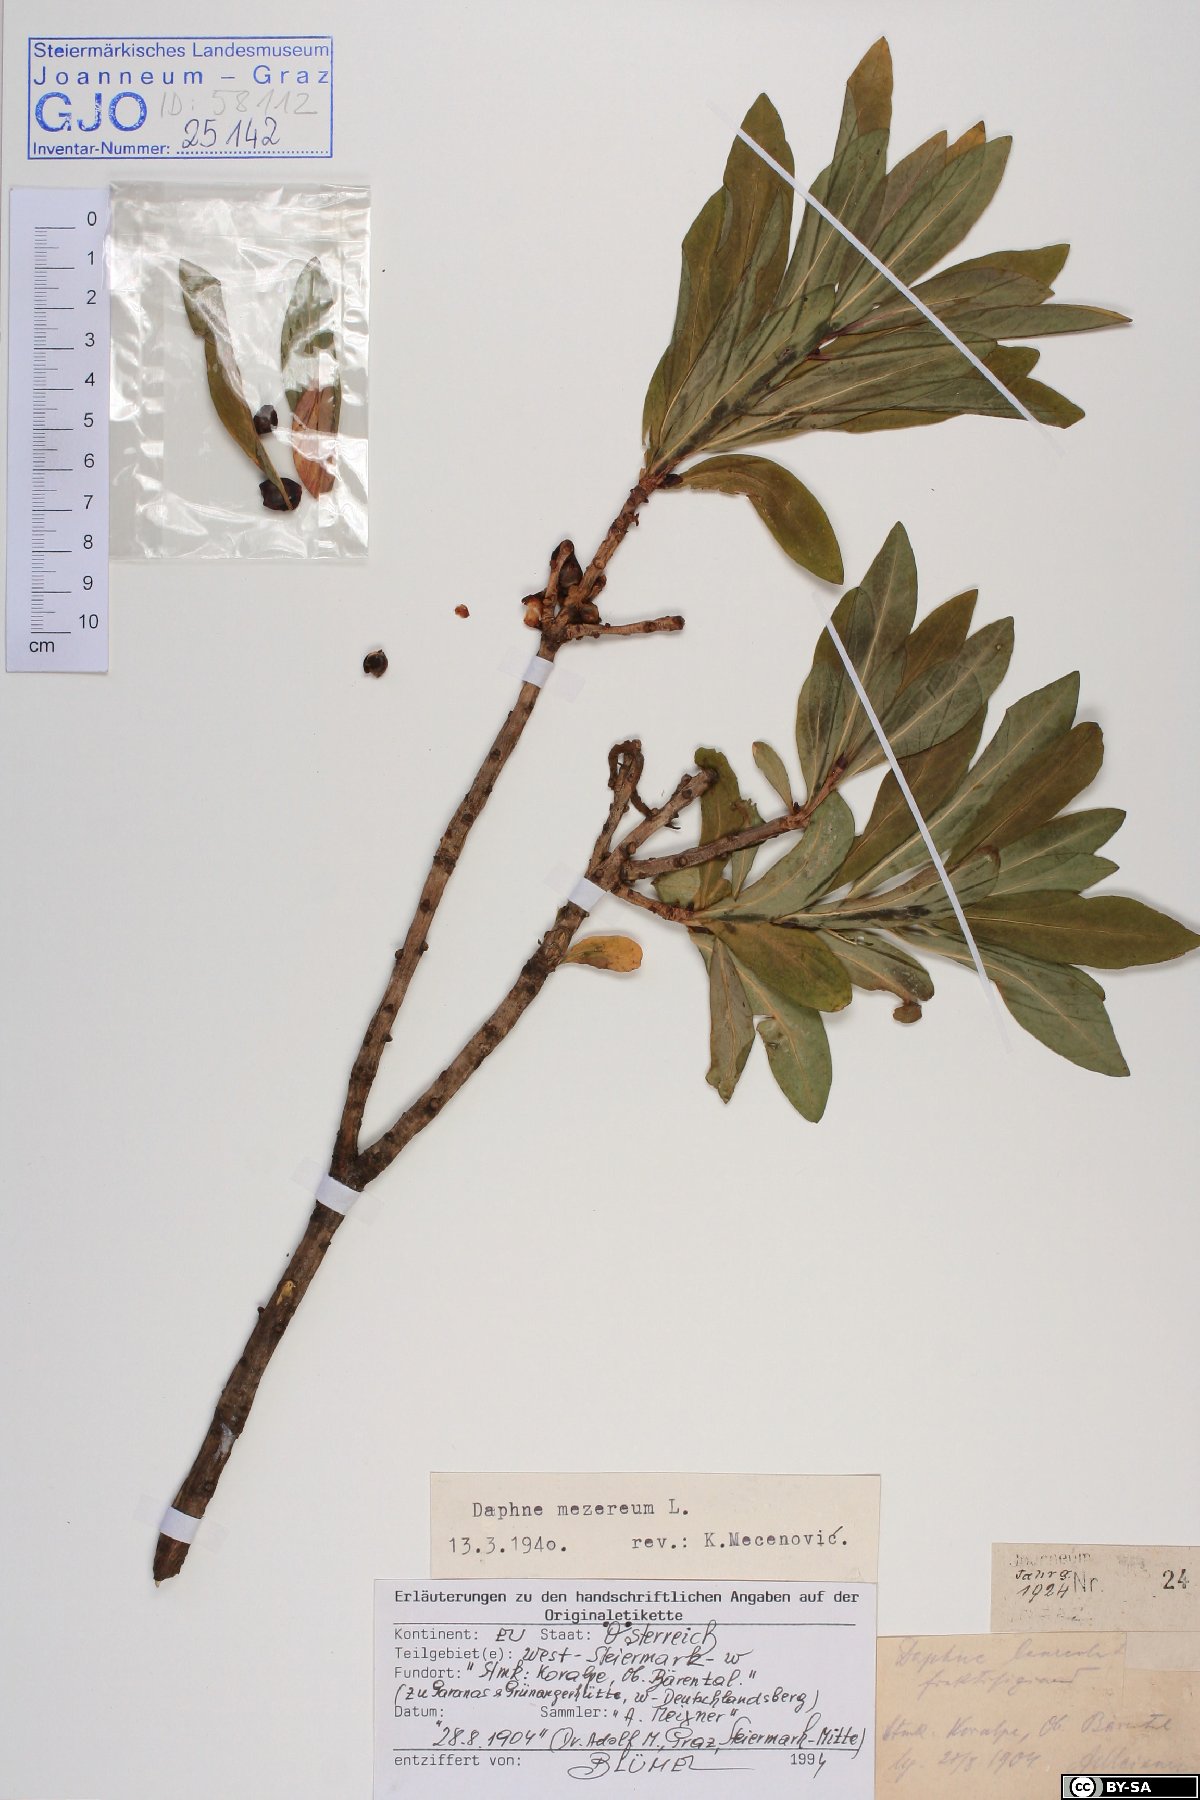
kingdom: Plantae
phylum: Tracheophyta
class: Magnoliopsida
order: Malvales
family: Thymelaeaceae
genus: Daphne
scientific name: Daphne mezereum
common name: Mezereon
